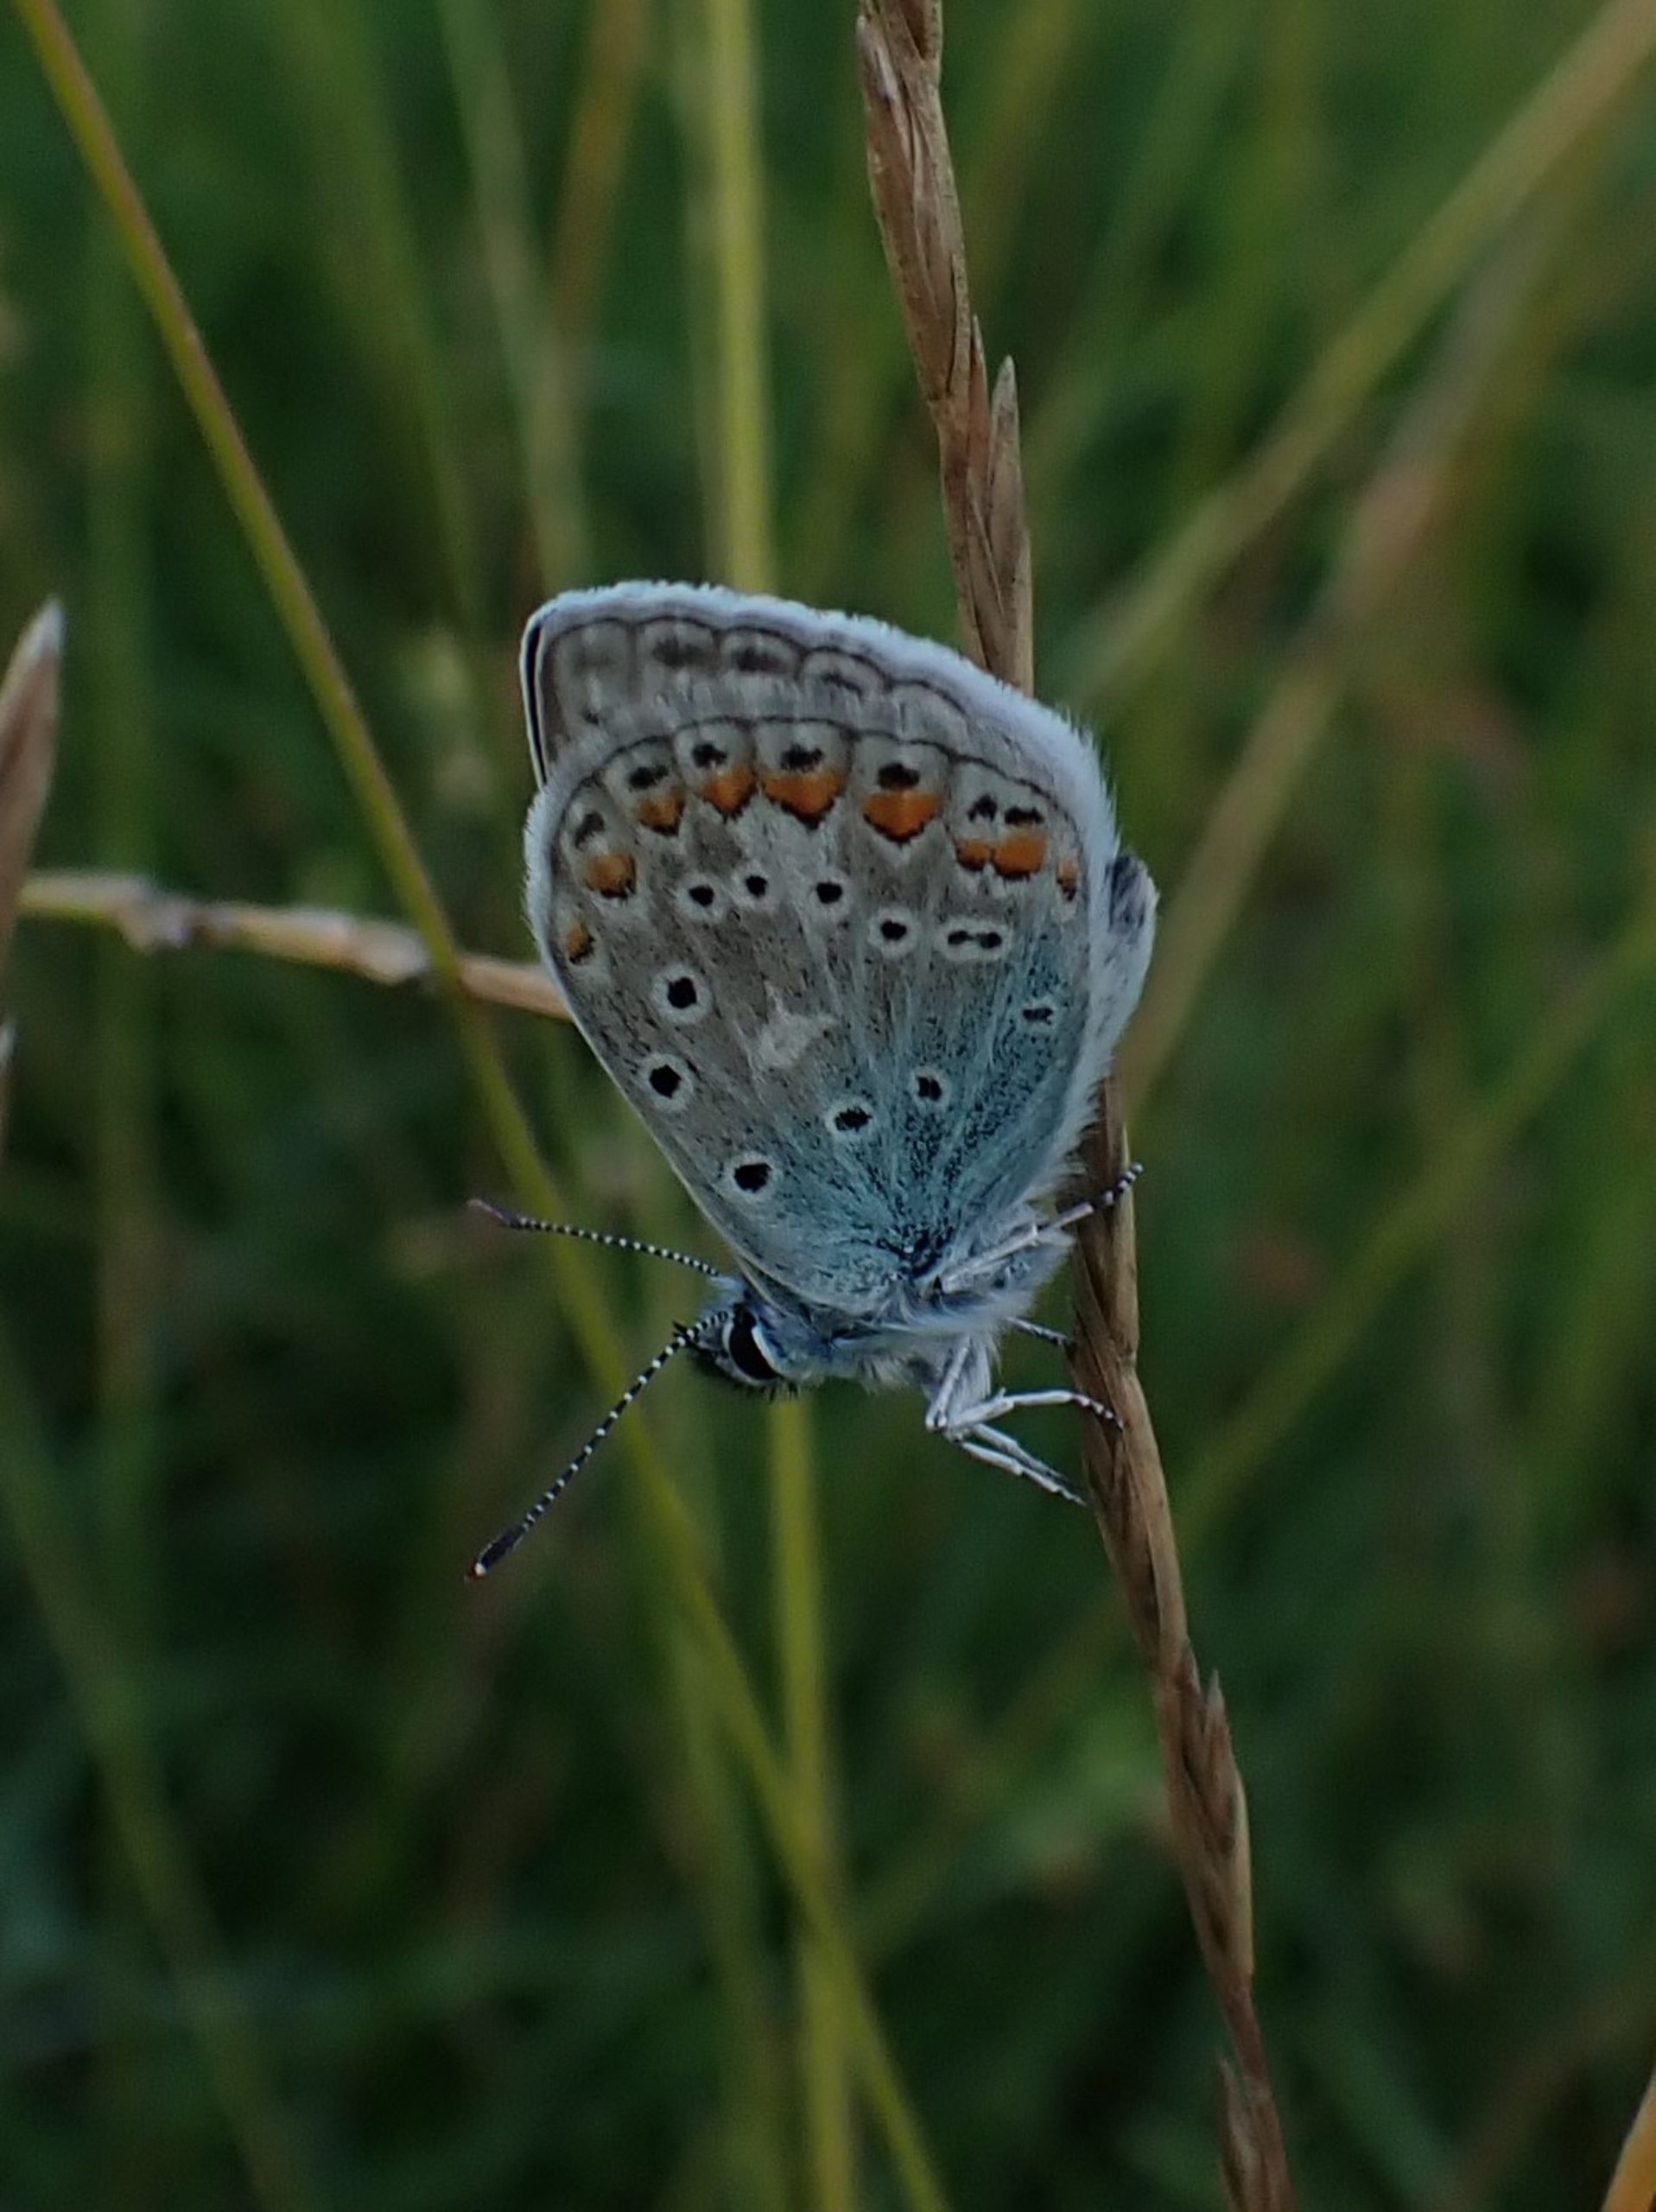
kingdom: Animalia
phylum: Arthropoda
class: Insecta
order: Lepidoptera
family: Lycaenidae
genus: Polyommatus
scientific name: Polyommatus icarus
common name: Almindelig blåfugl
